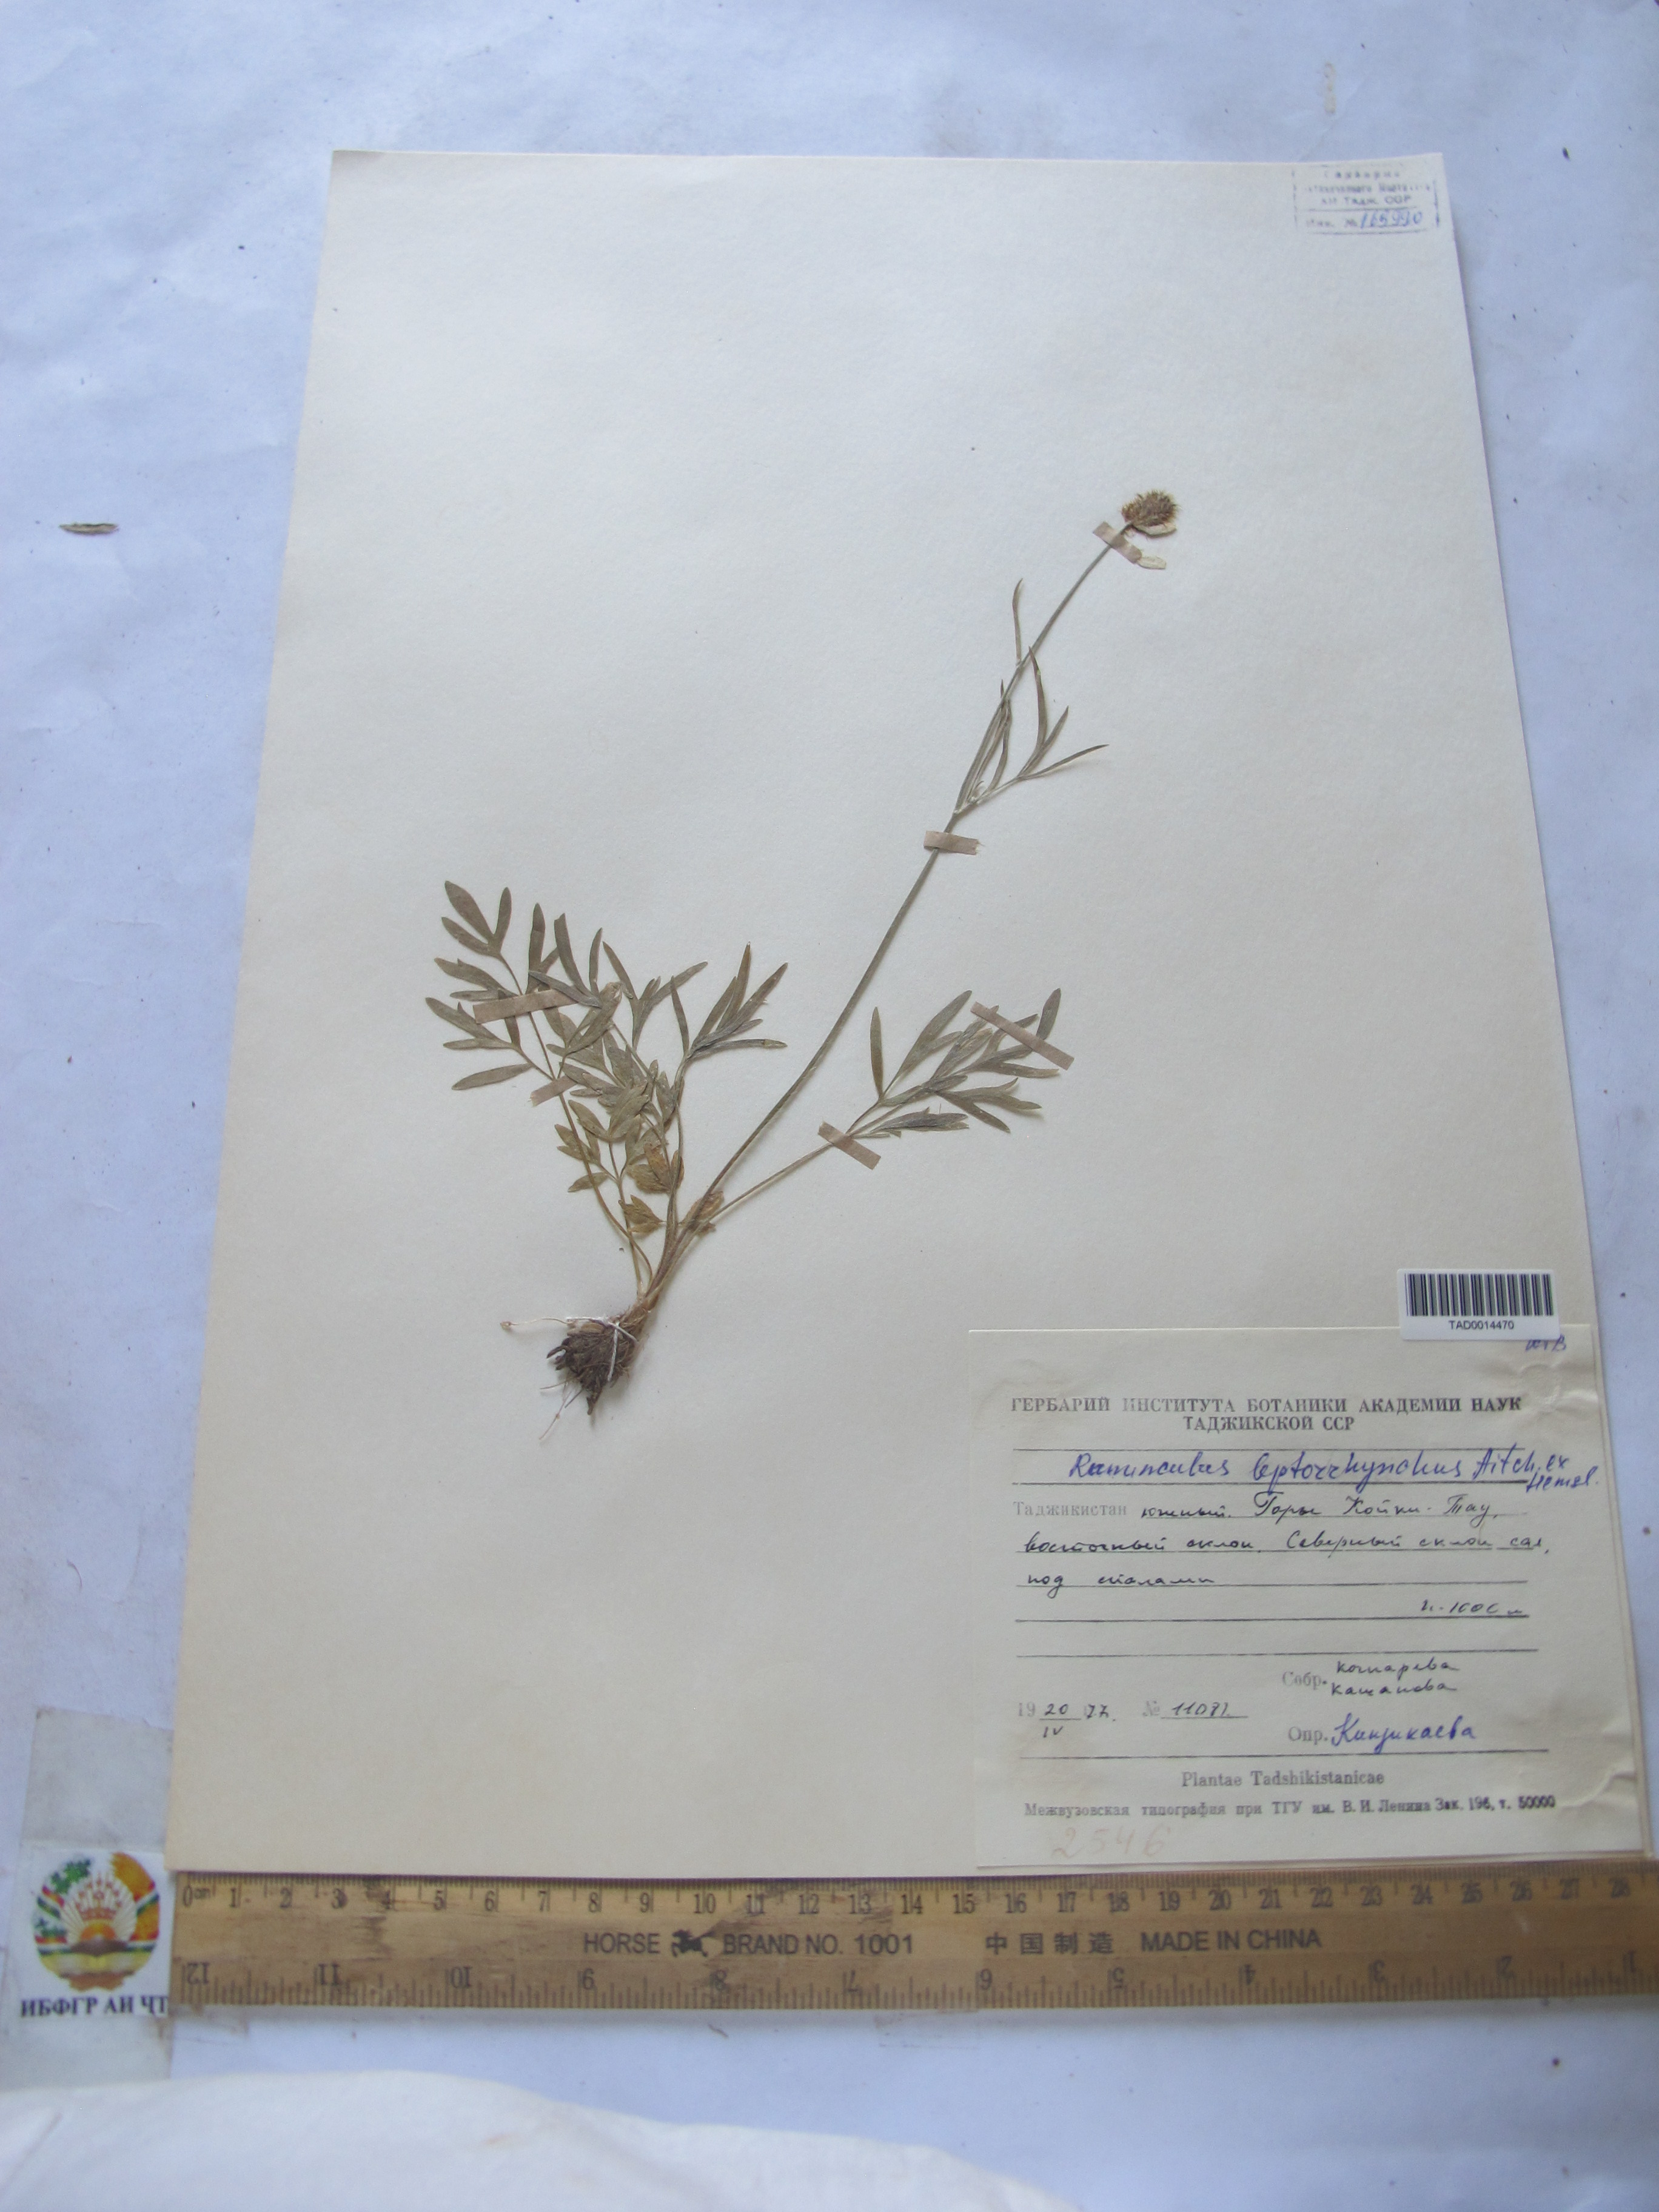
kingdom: Plantae
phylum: Tracheophyta
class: Magnoliopsida
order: Ranunculales
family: Ranunculaceae
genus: Ranunculus
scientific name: Ranunculus leptorrhynchus
